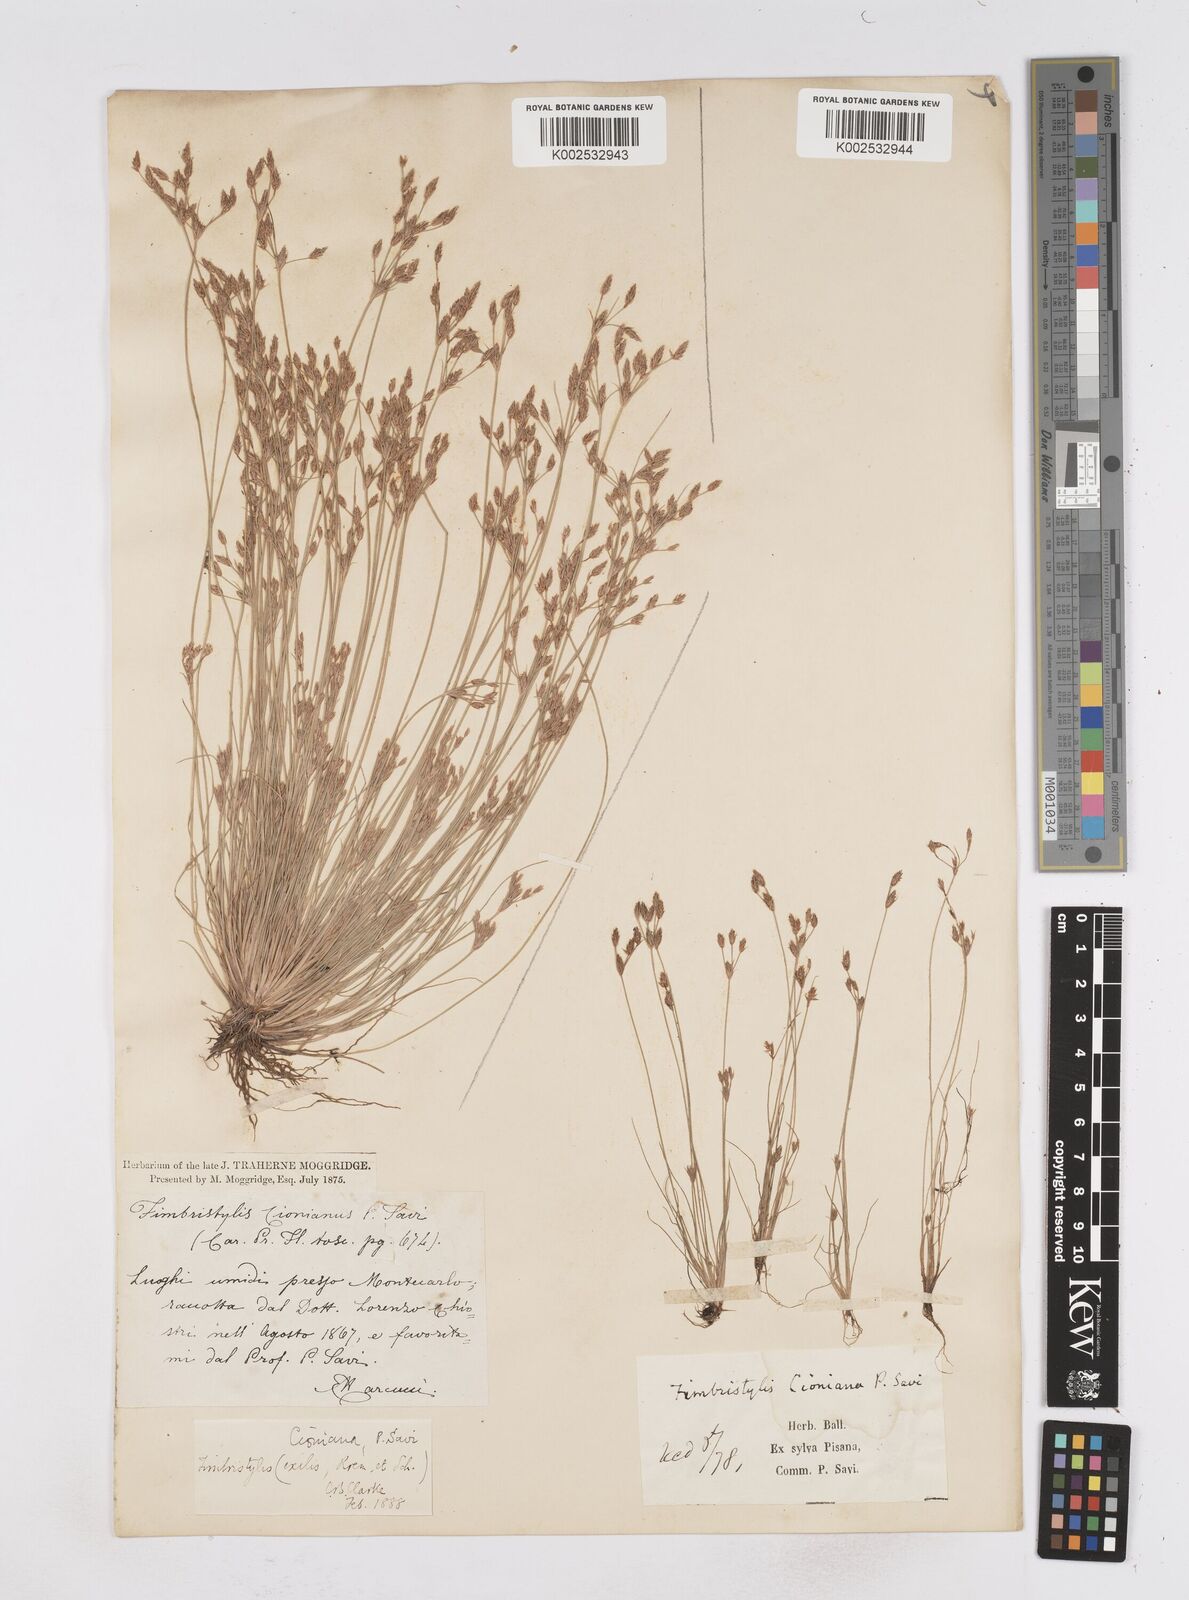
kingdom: Plantae
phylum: Tracheophyta
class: Liliopsida
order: Poales
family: Cyperaceae
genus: Bulbostylis
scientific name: Bulbostylis cioniana
